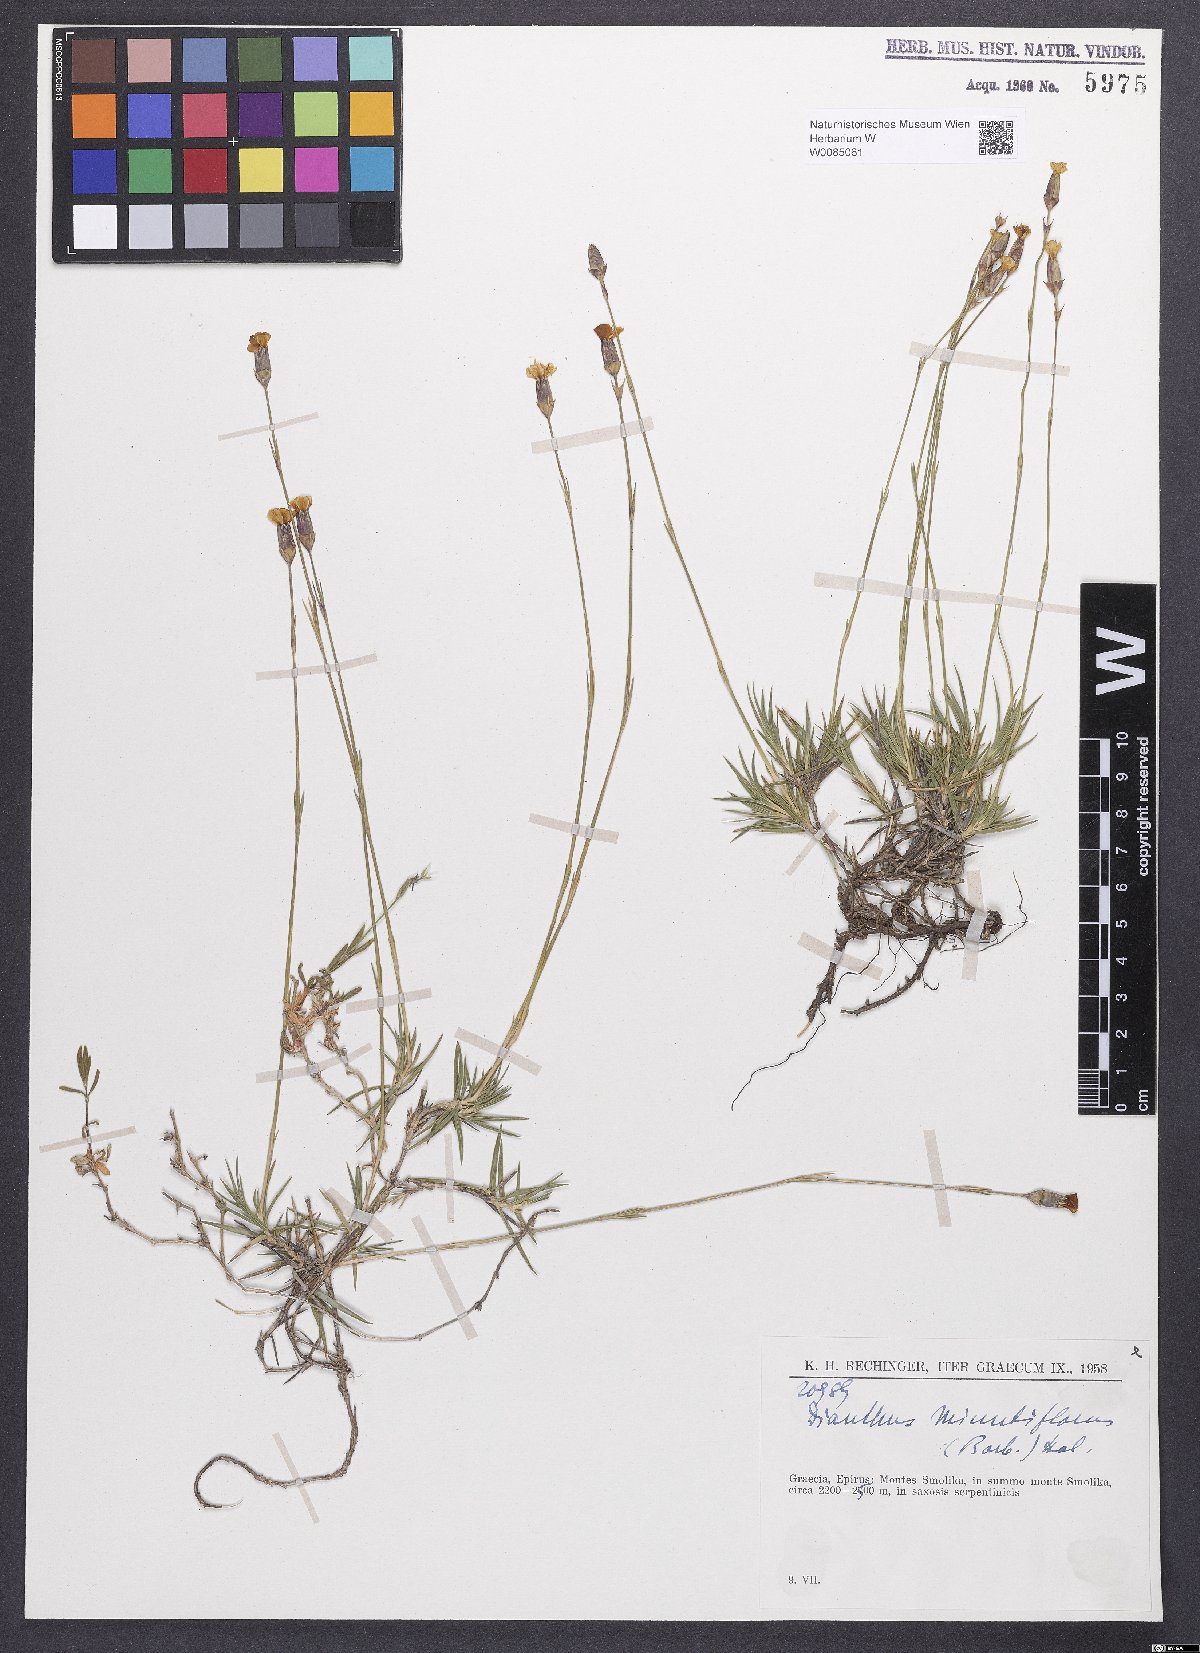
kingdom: Plantae
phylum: Tracheophyta
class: Magnoliopsida
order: Caryophyllales
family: Caryophyllaceae
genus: Dianthus
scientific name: Dianthus integer
